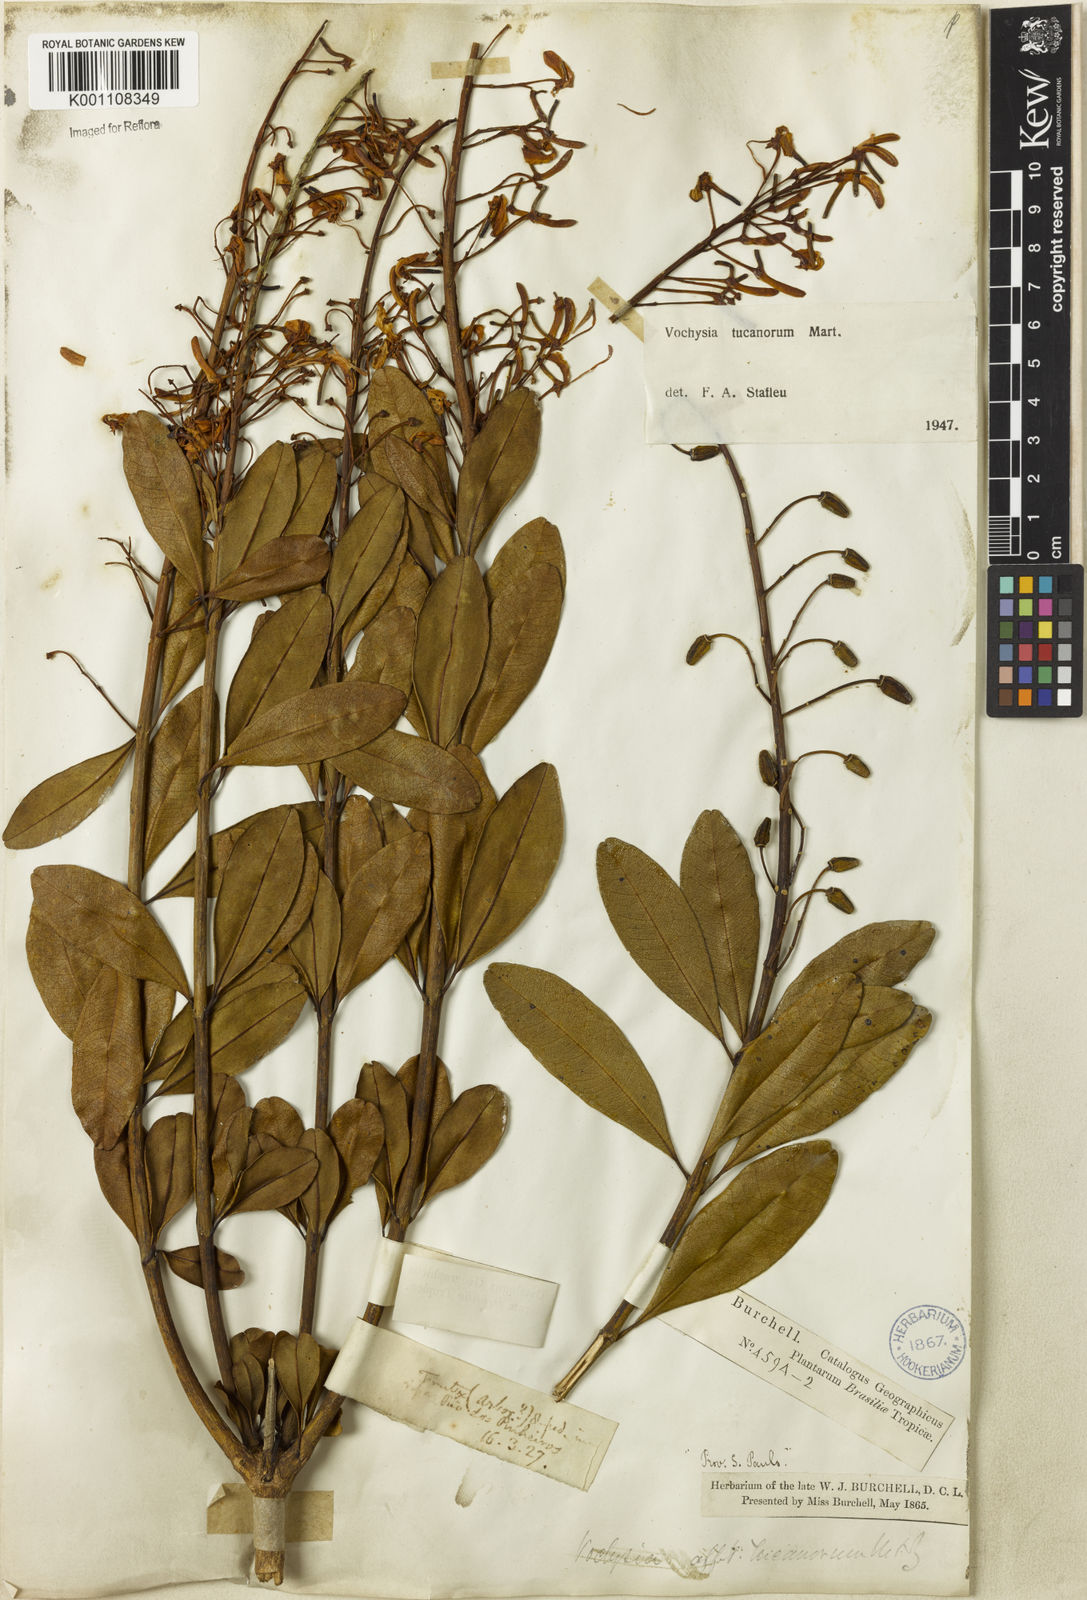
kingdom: Plantae
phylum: Tracheophyta
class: Magnoliopsida
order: Myrtales
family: Vochysiaceae
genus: Vochysia
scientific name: Vochysia tucanorum
